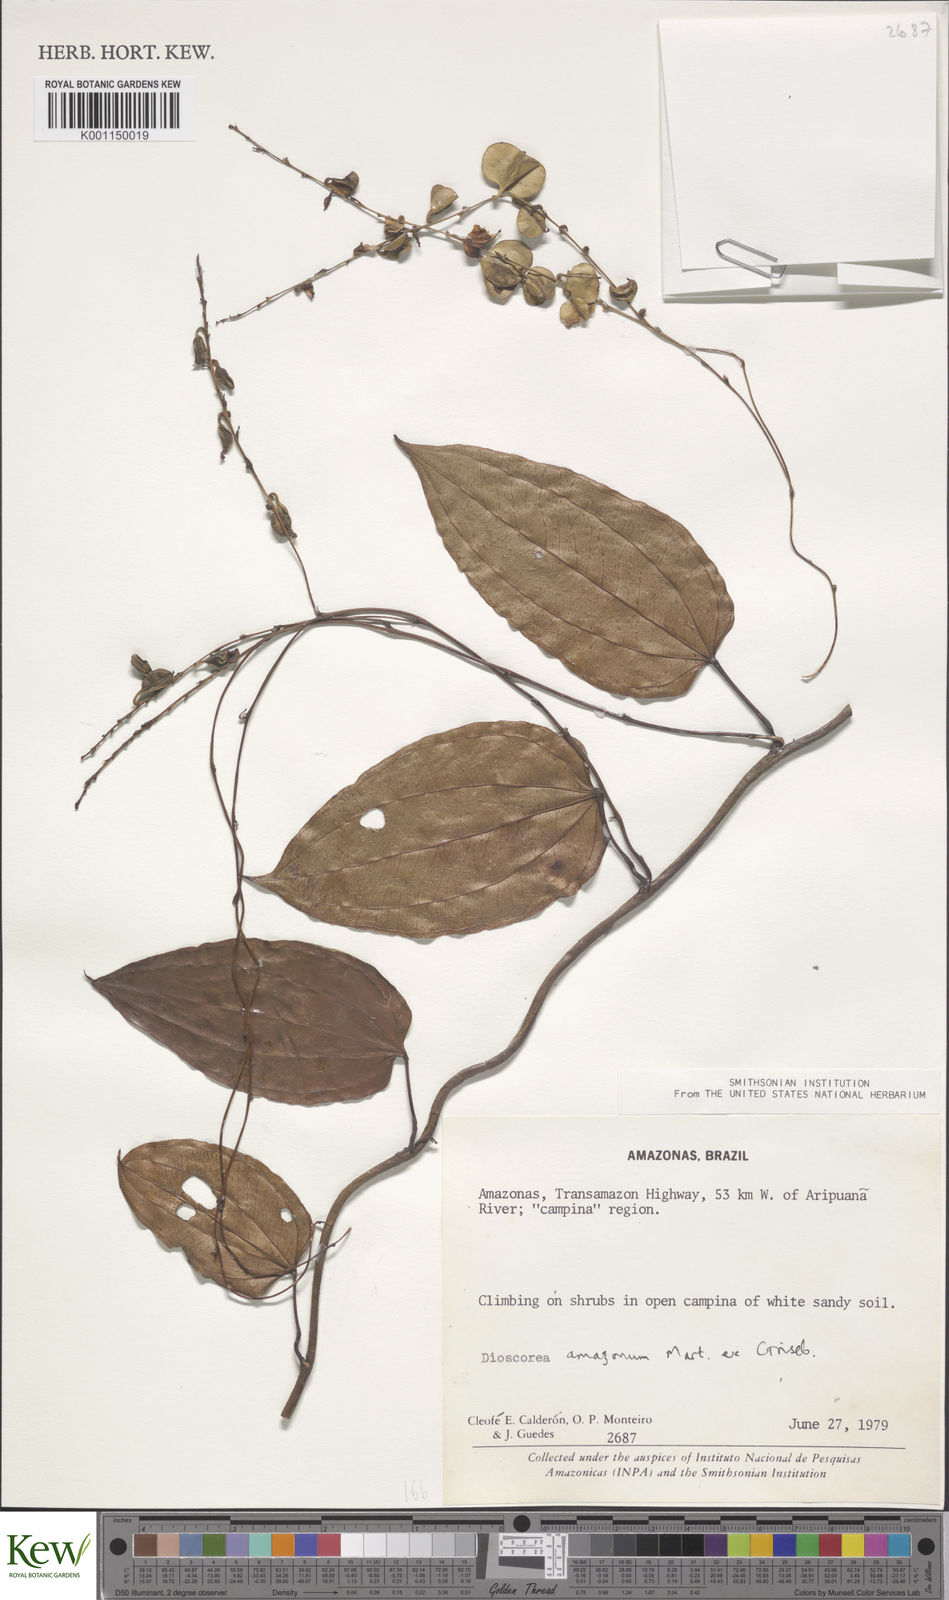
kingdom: Plantae
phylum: Tracheophyta
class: Liliopsida
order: Dioscoreales
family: Dioscoreaceae
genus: Dioscorea
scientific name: Dioscorea amazonum
